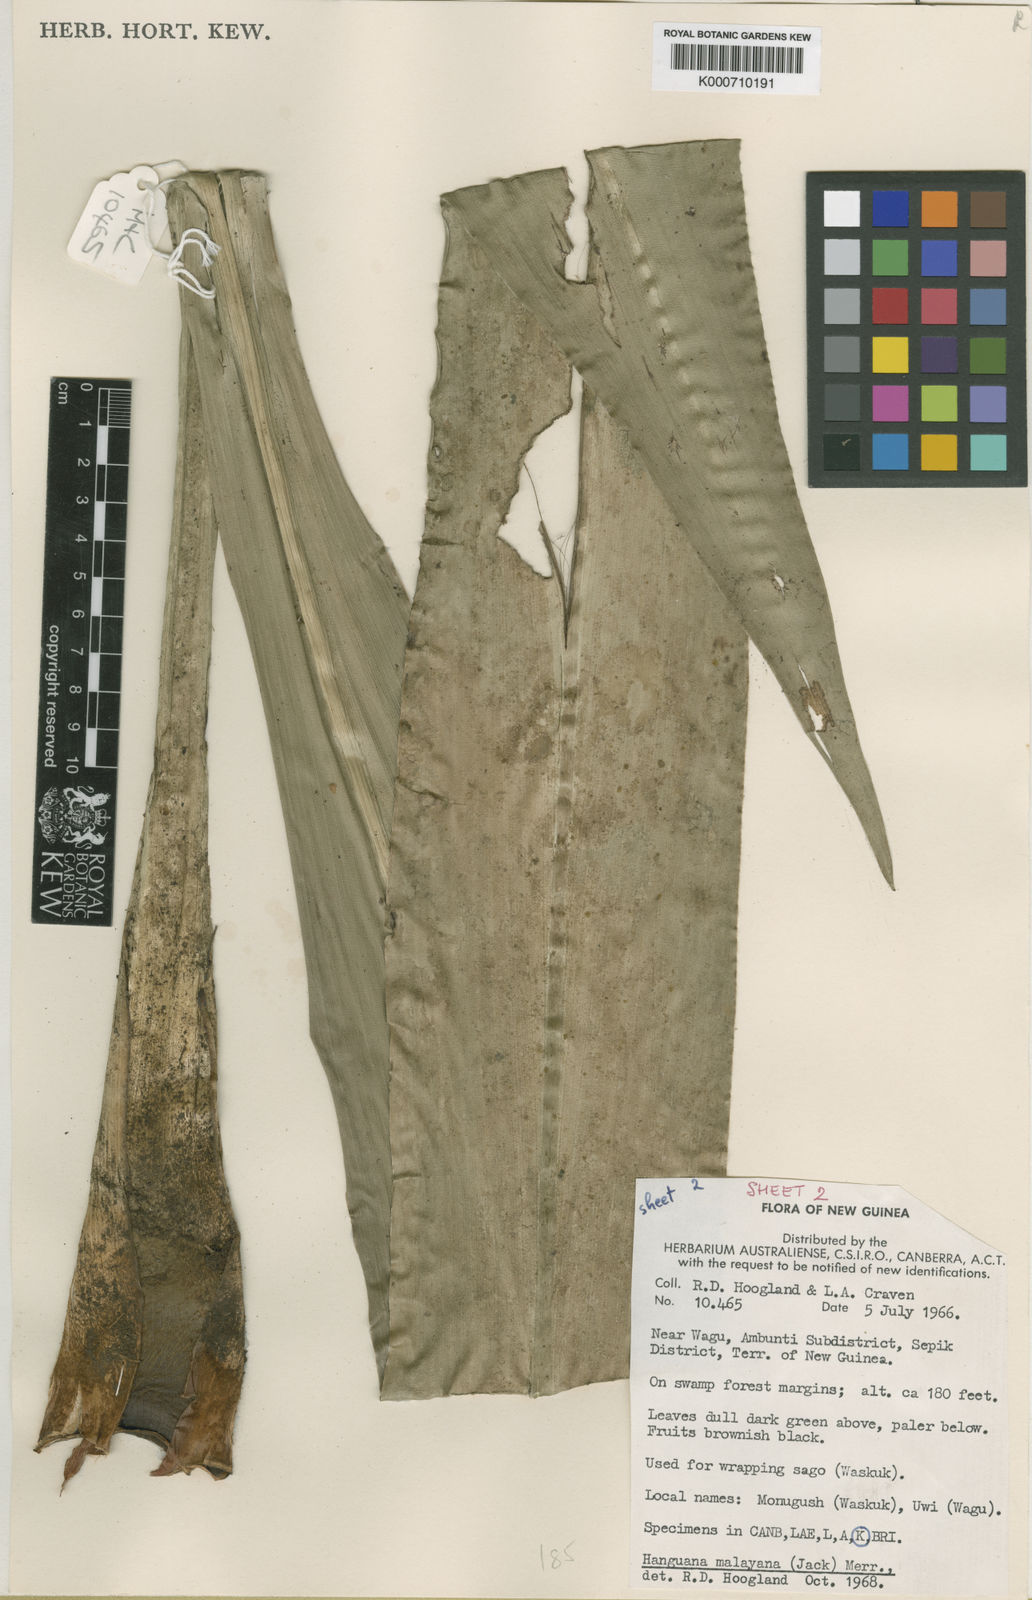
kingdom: Plantae
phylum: Tracheophyta
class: Liliopsida
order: Commelinales
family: Hanguanaceae
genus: Hanguana
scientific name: Hanguana malayana
